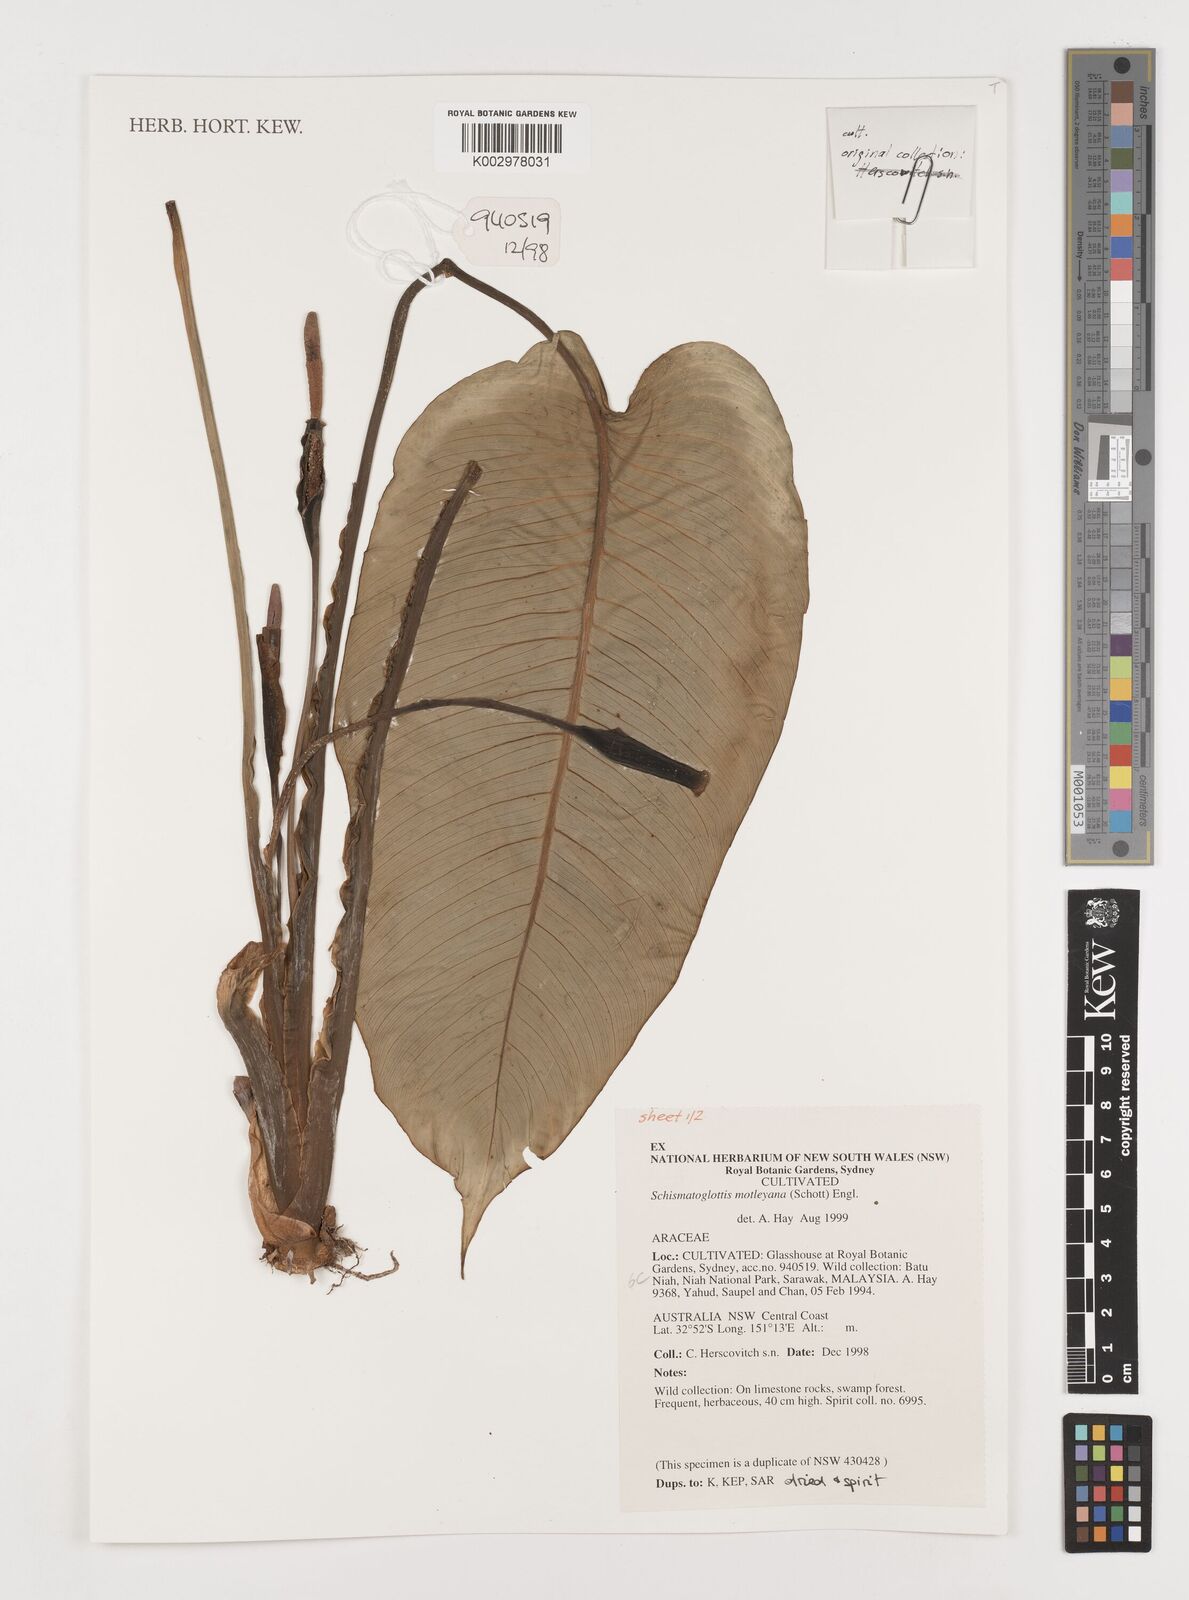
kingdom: Plantae
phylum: Tracheophyta
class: Liliopsida
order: Alismatales
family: Araceae
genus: Schismatoglottis
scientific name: Schismatoglottis motleyana
